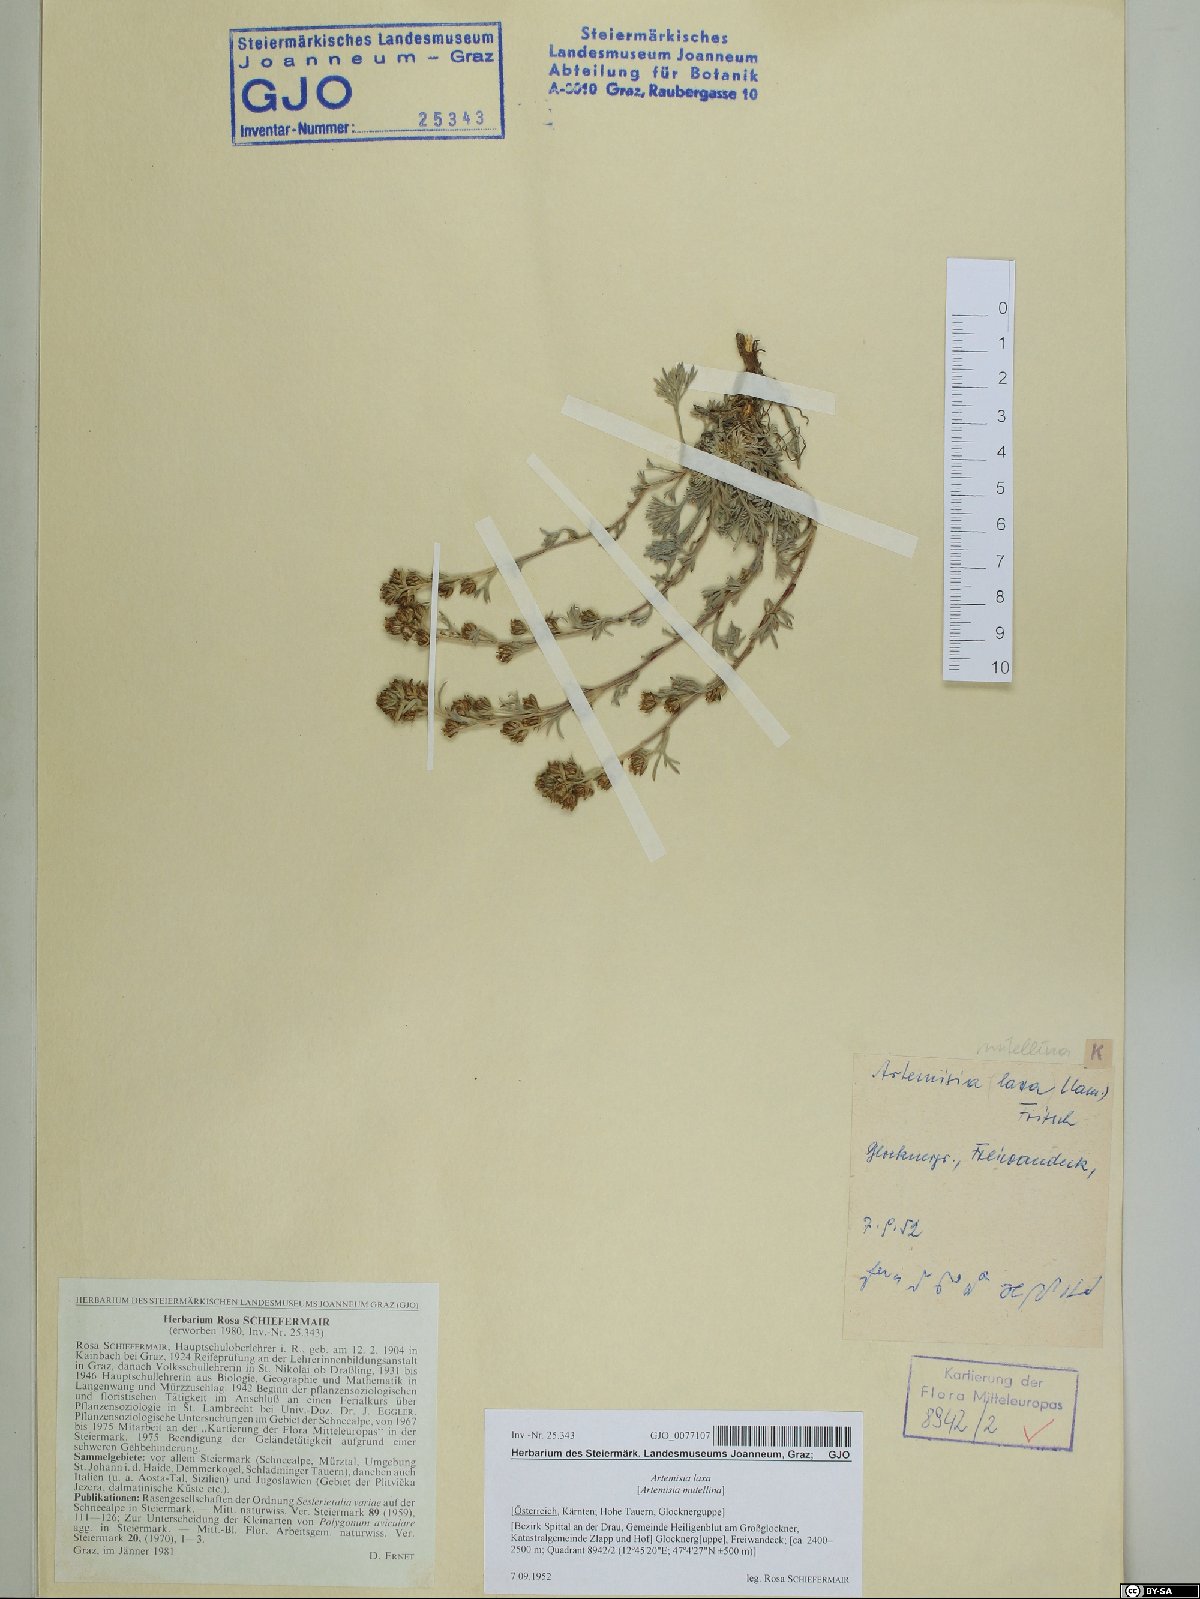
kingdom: Plantae
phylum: Tracheophyta
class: Magnoliopsida
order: Asterales
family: Asteraceae
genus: Artemisia
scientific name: Artemisia mutellina
